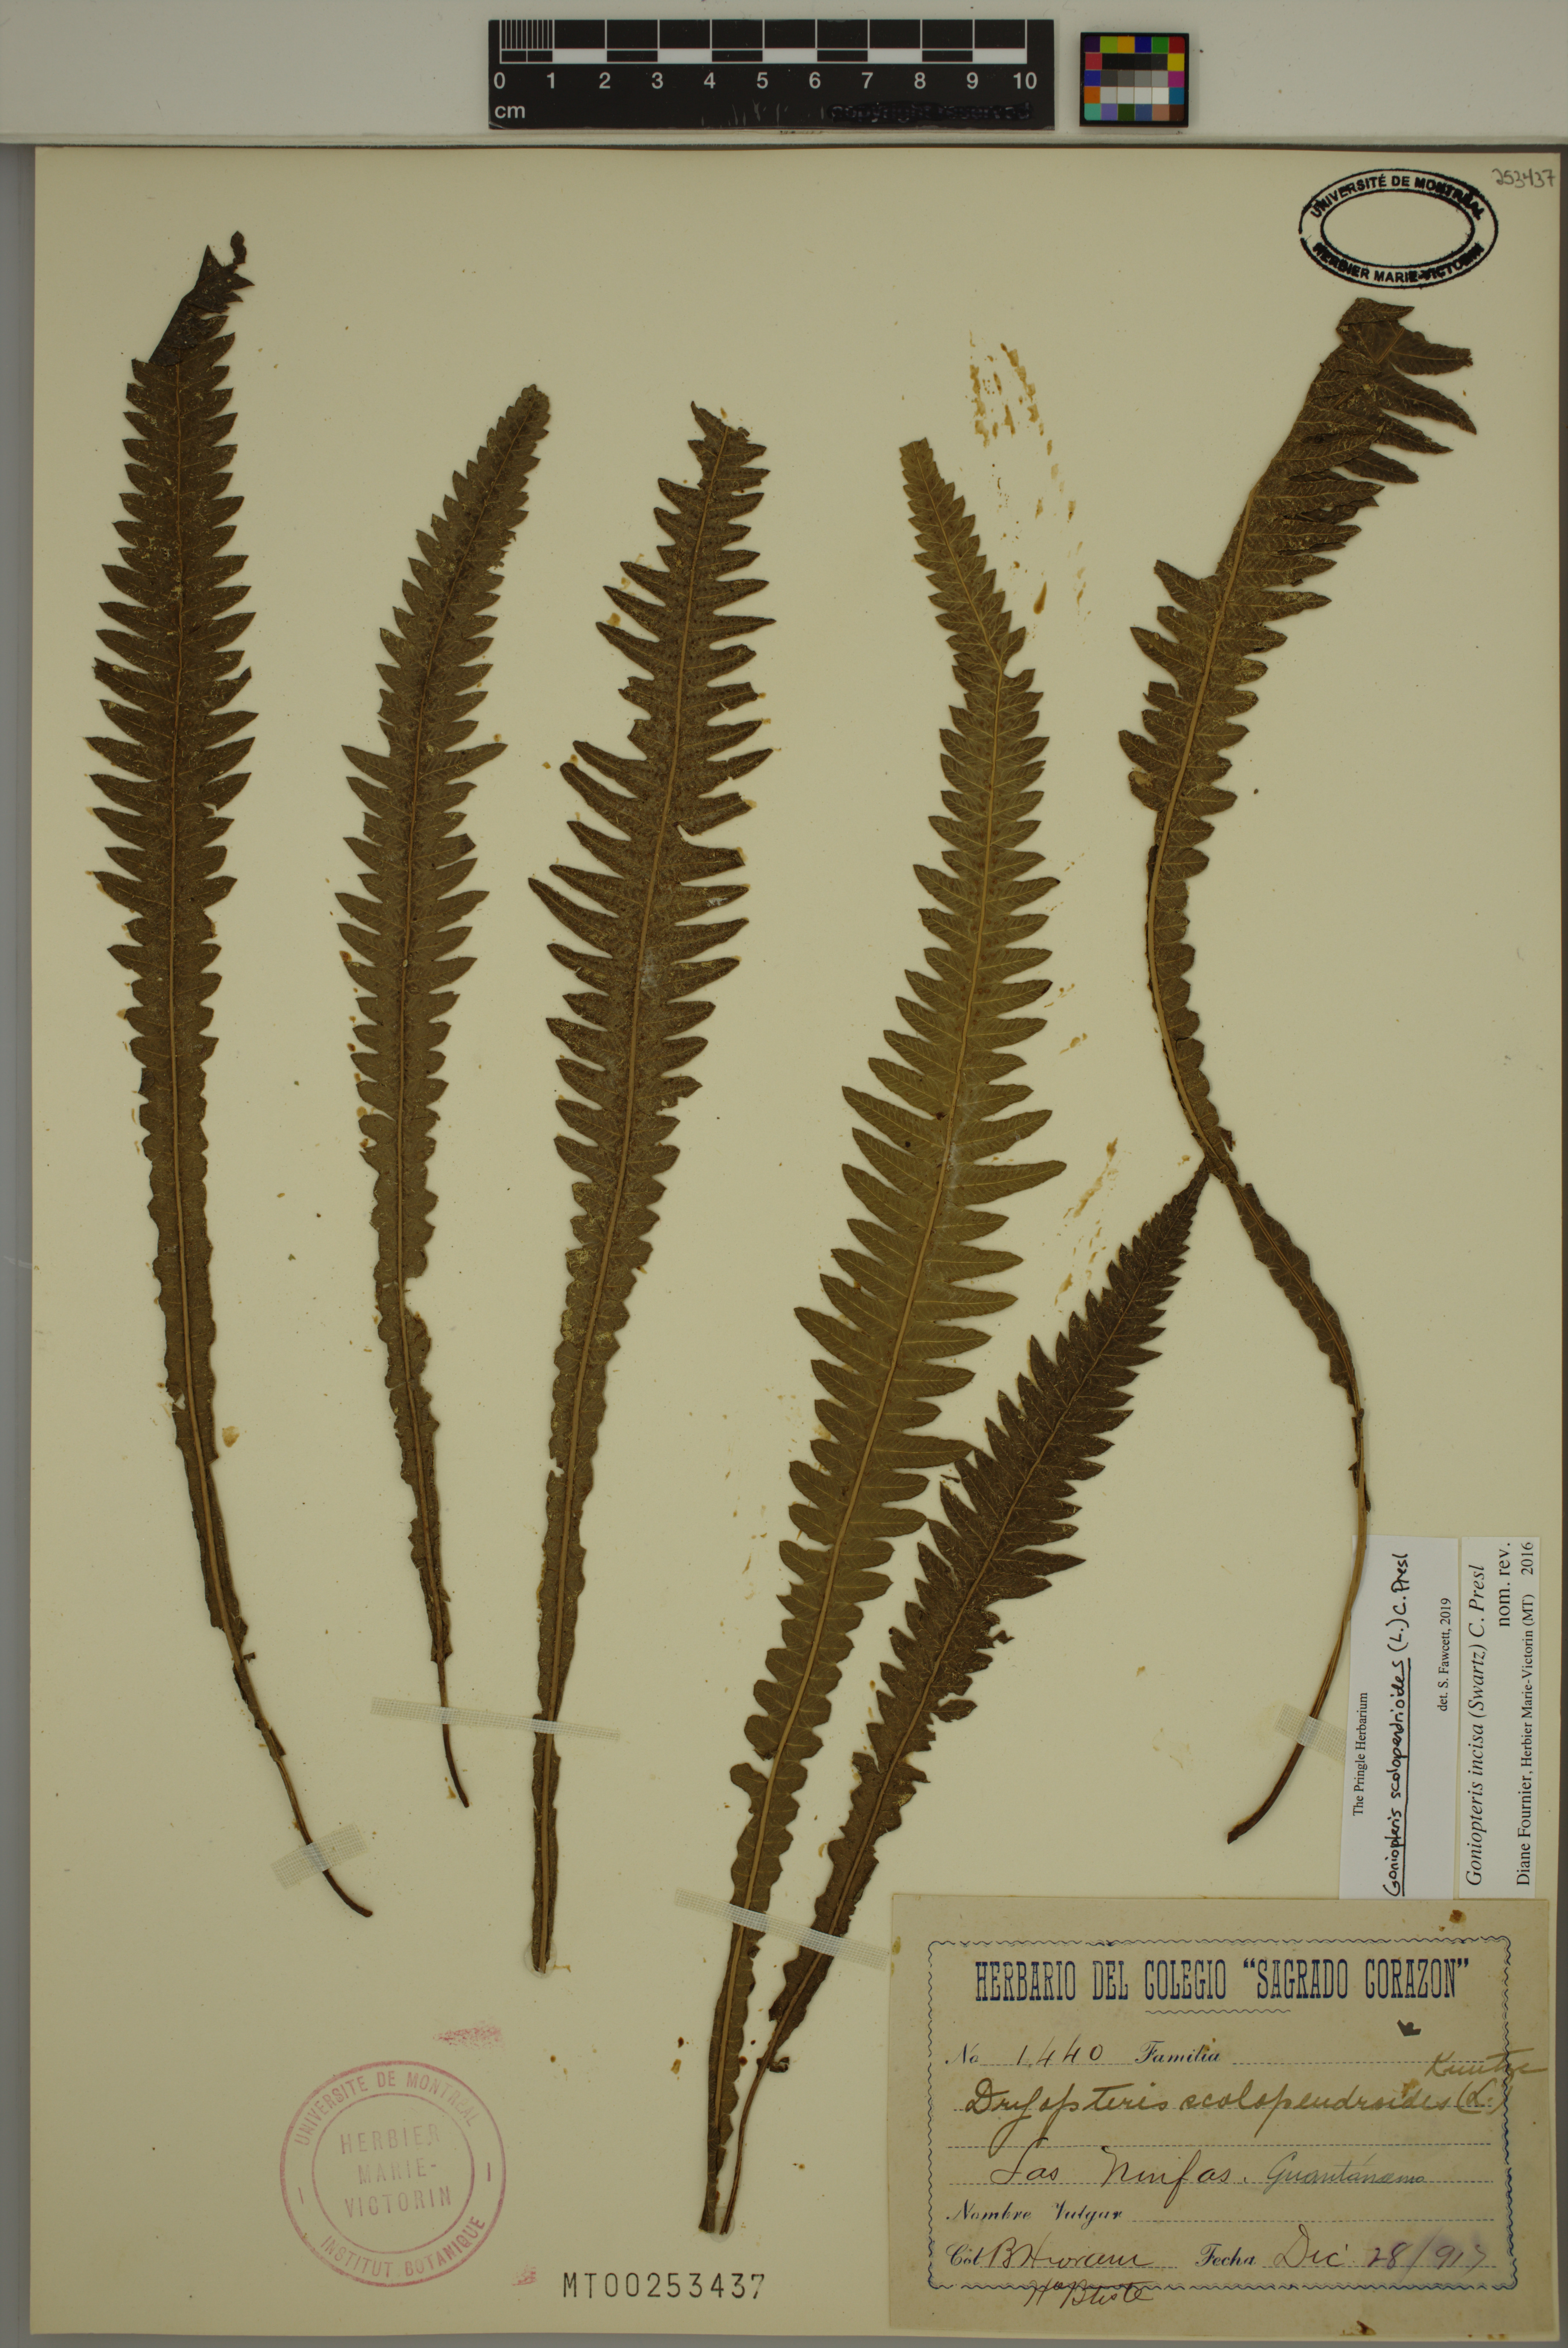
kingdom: Plantae
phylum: Tracheophyta
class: Polypodiopsida
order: Polypodiales
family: Thelypteridaceae
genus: Goniopteris
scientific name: Goniopteris scolopendrioides
